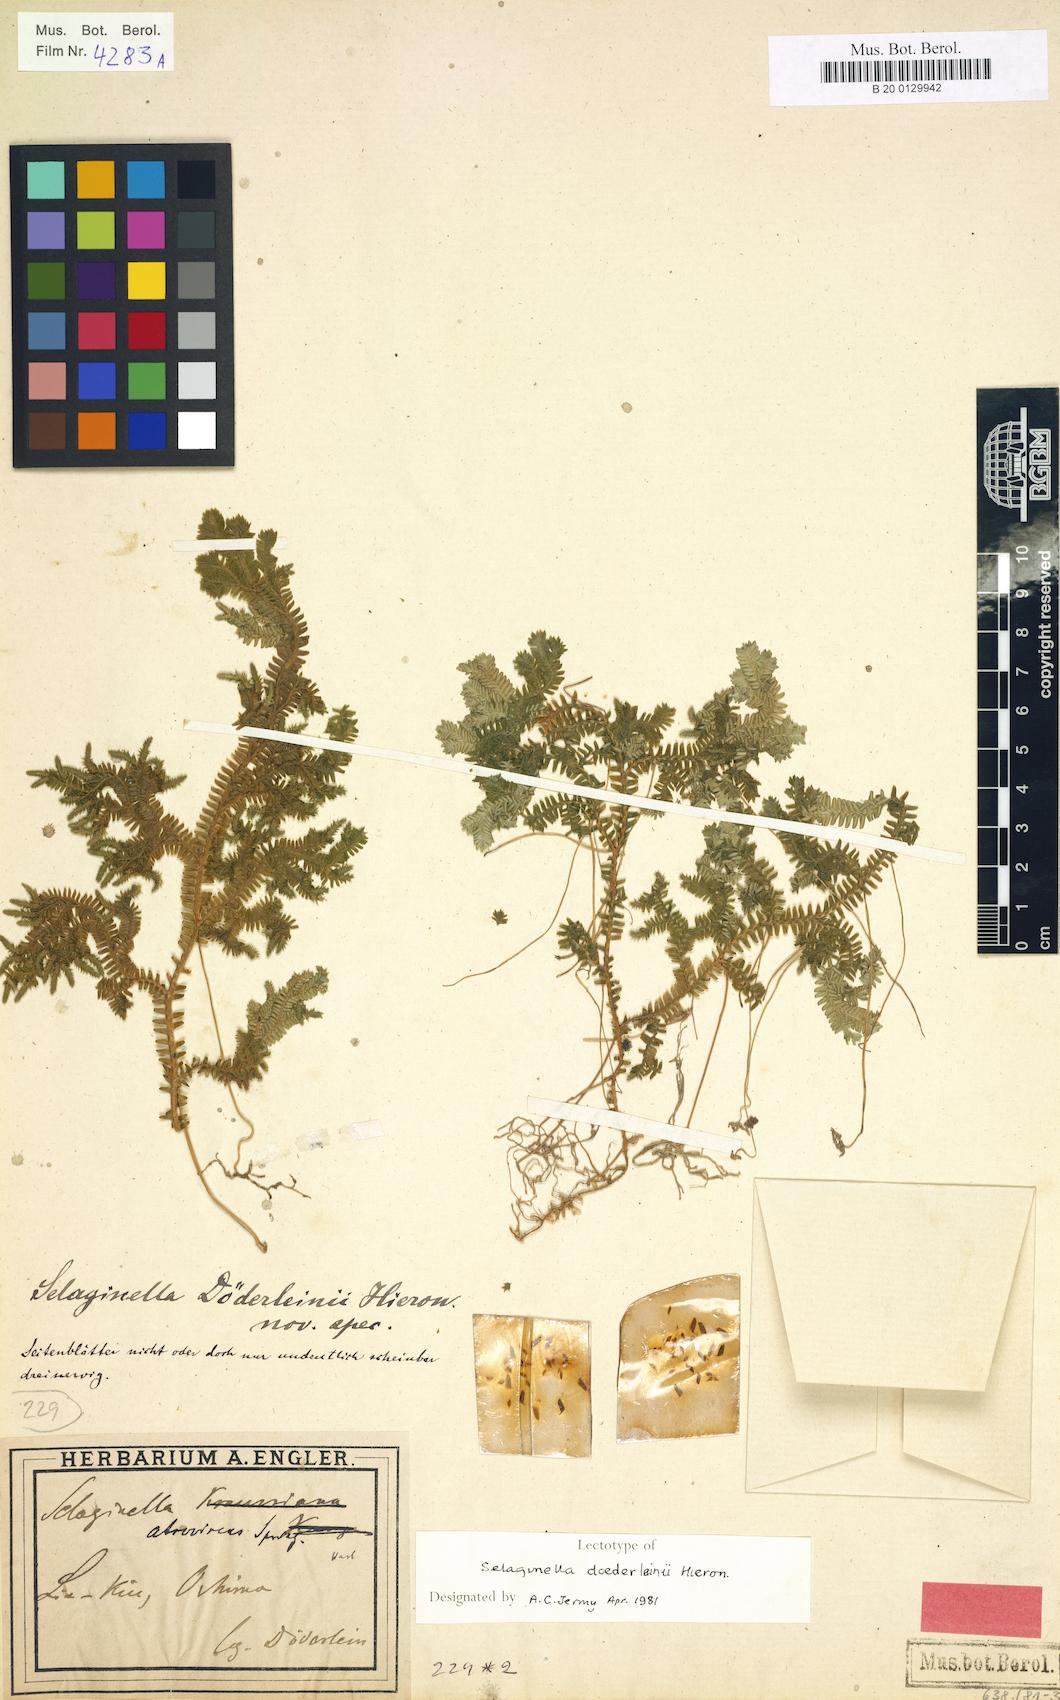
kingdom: Plantae
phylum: Tracheophyta
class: Lycopodiopsida
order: Selaginellales
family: Selaginellaceae
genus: Selaginella
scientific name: Selaginella doederleinii
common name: Greater selaginella
